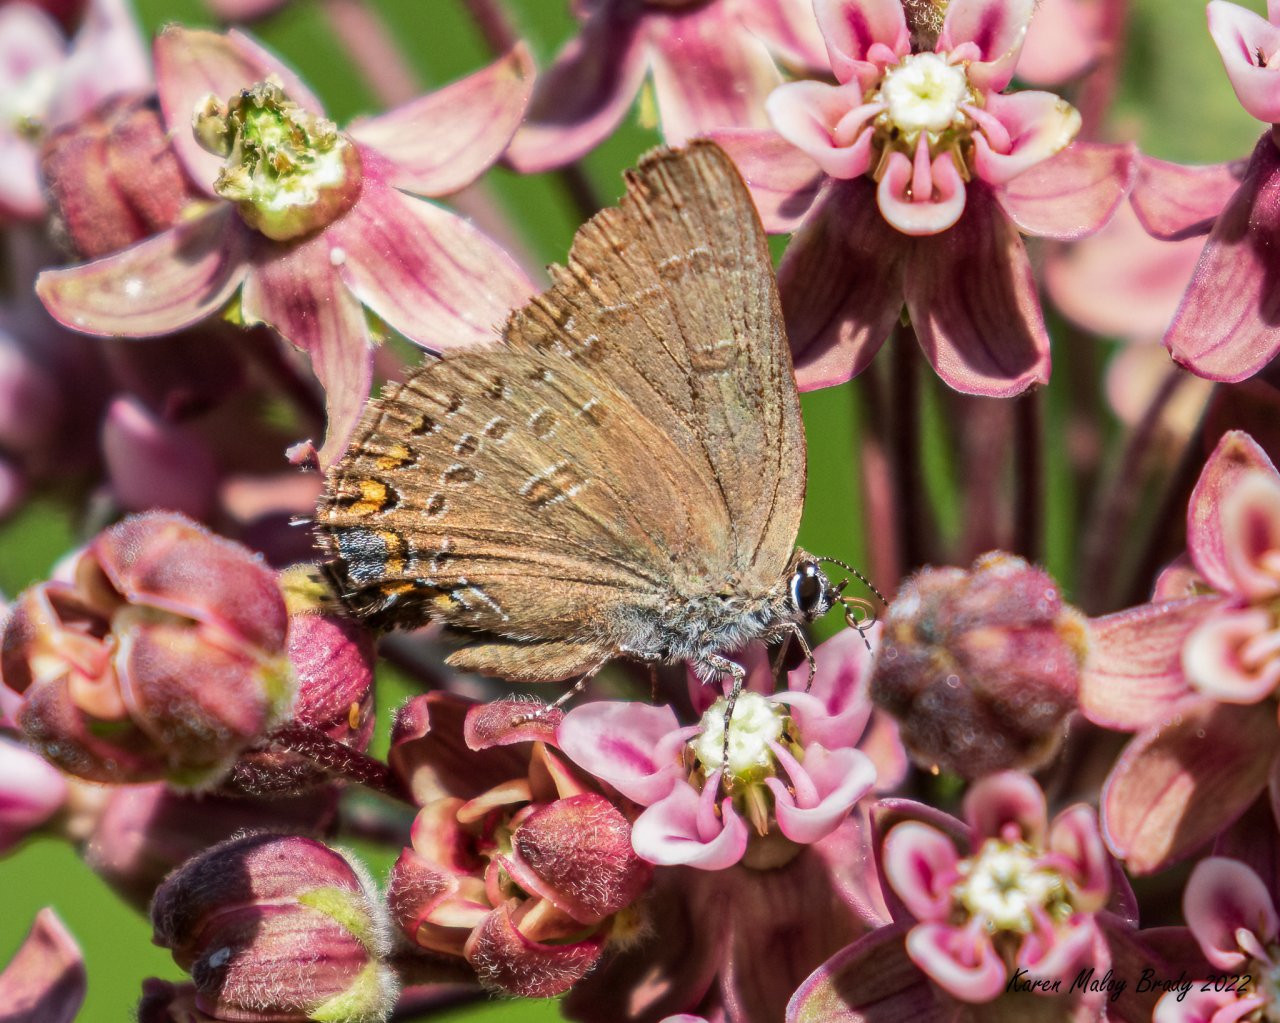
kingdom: Animalia
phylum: Arthropoda
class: Insecta
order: Lepidoptera
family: Lycaenidae
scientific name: Lycaenidae
